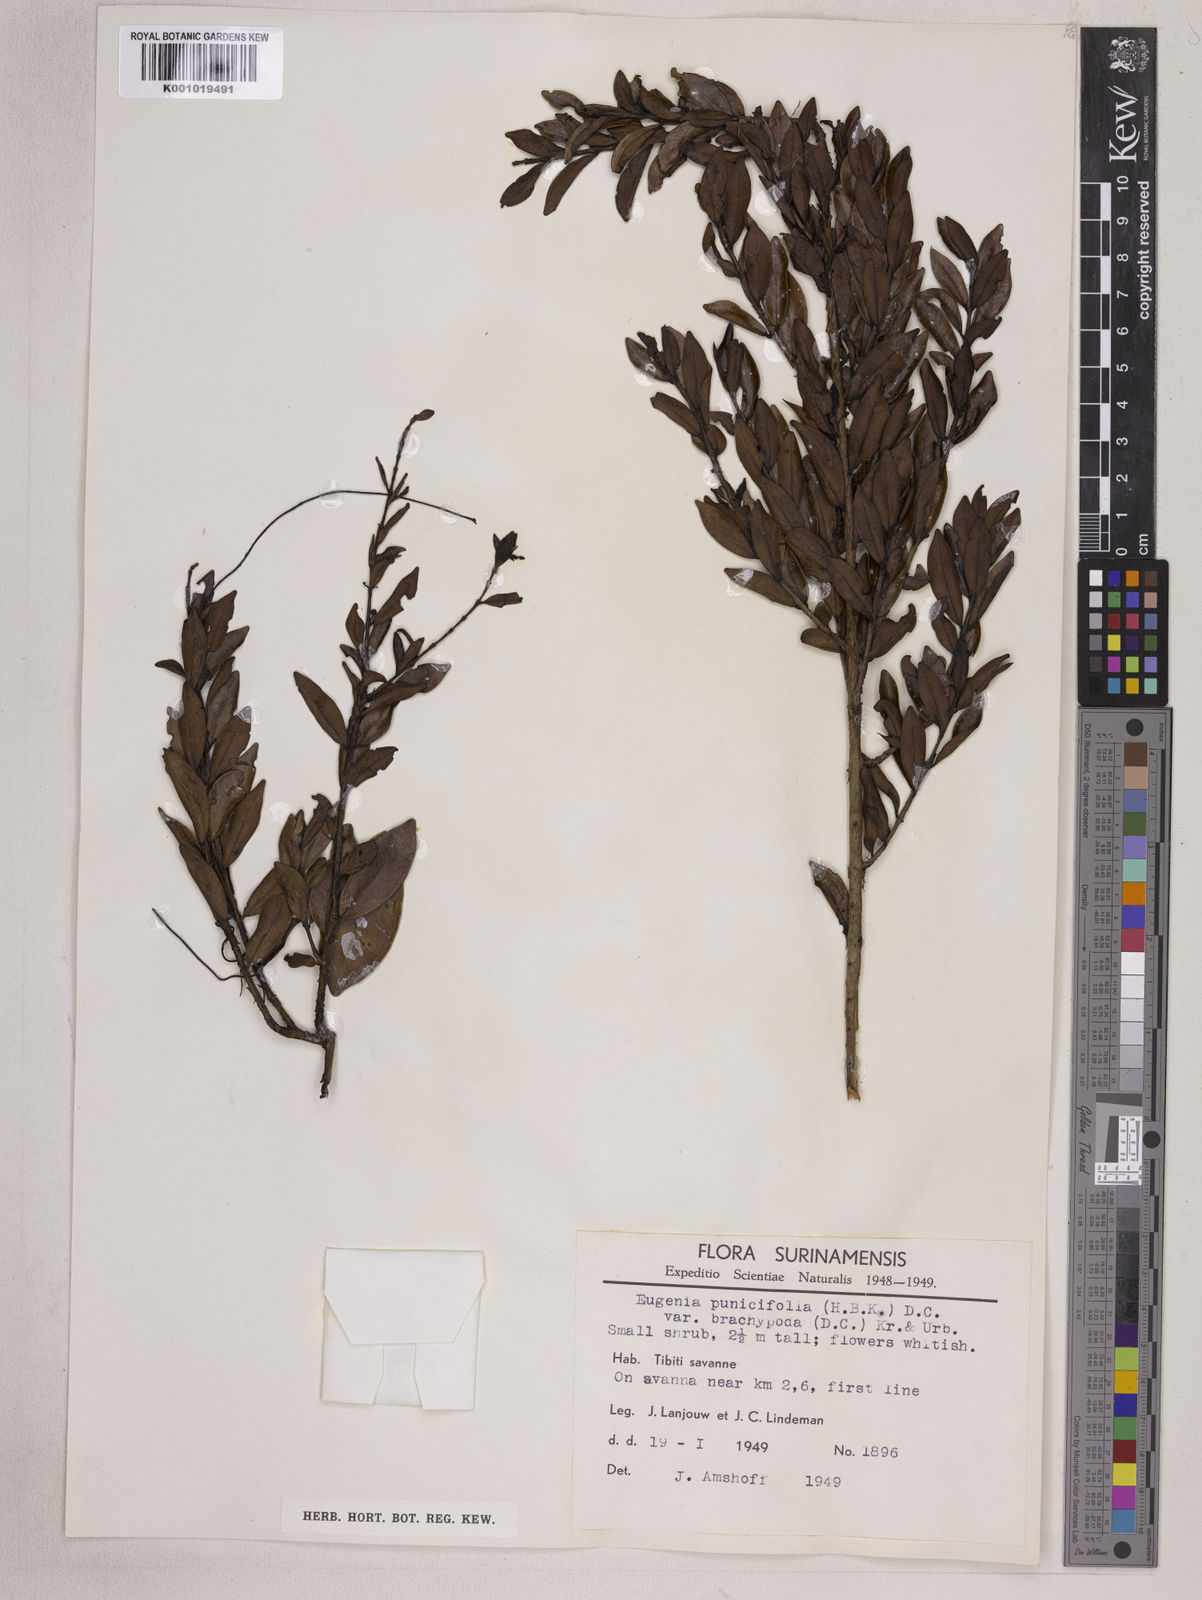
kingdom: Plantae
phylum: Tracheophyta
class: Magnoliopsida
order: Myrtales
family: Myrtaceae
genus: Eugenia
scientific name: Eugenia punicifolia
